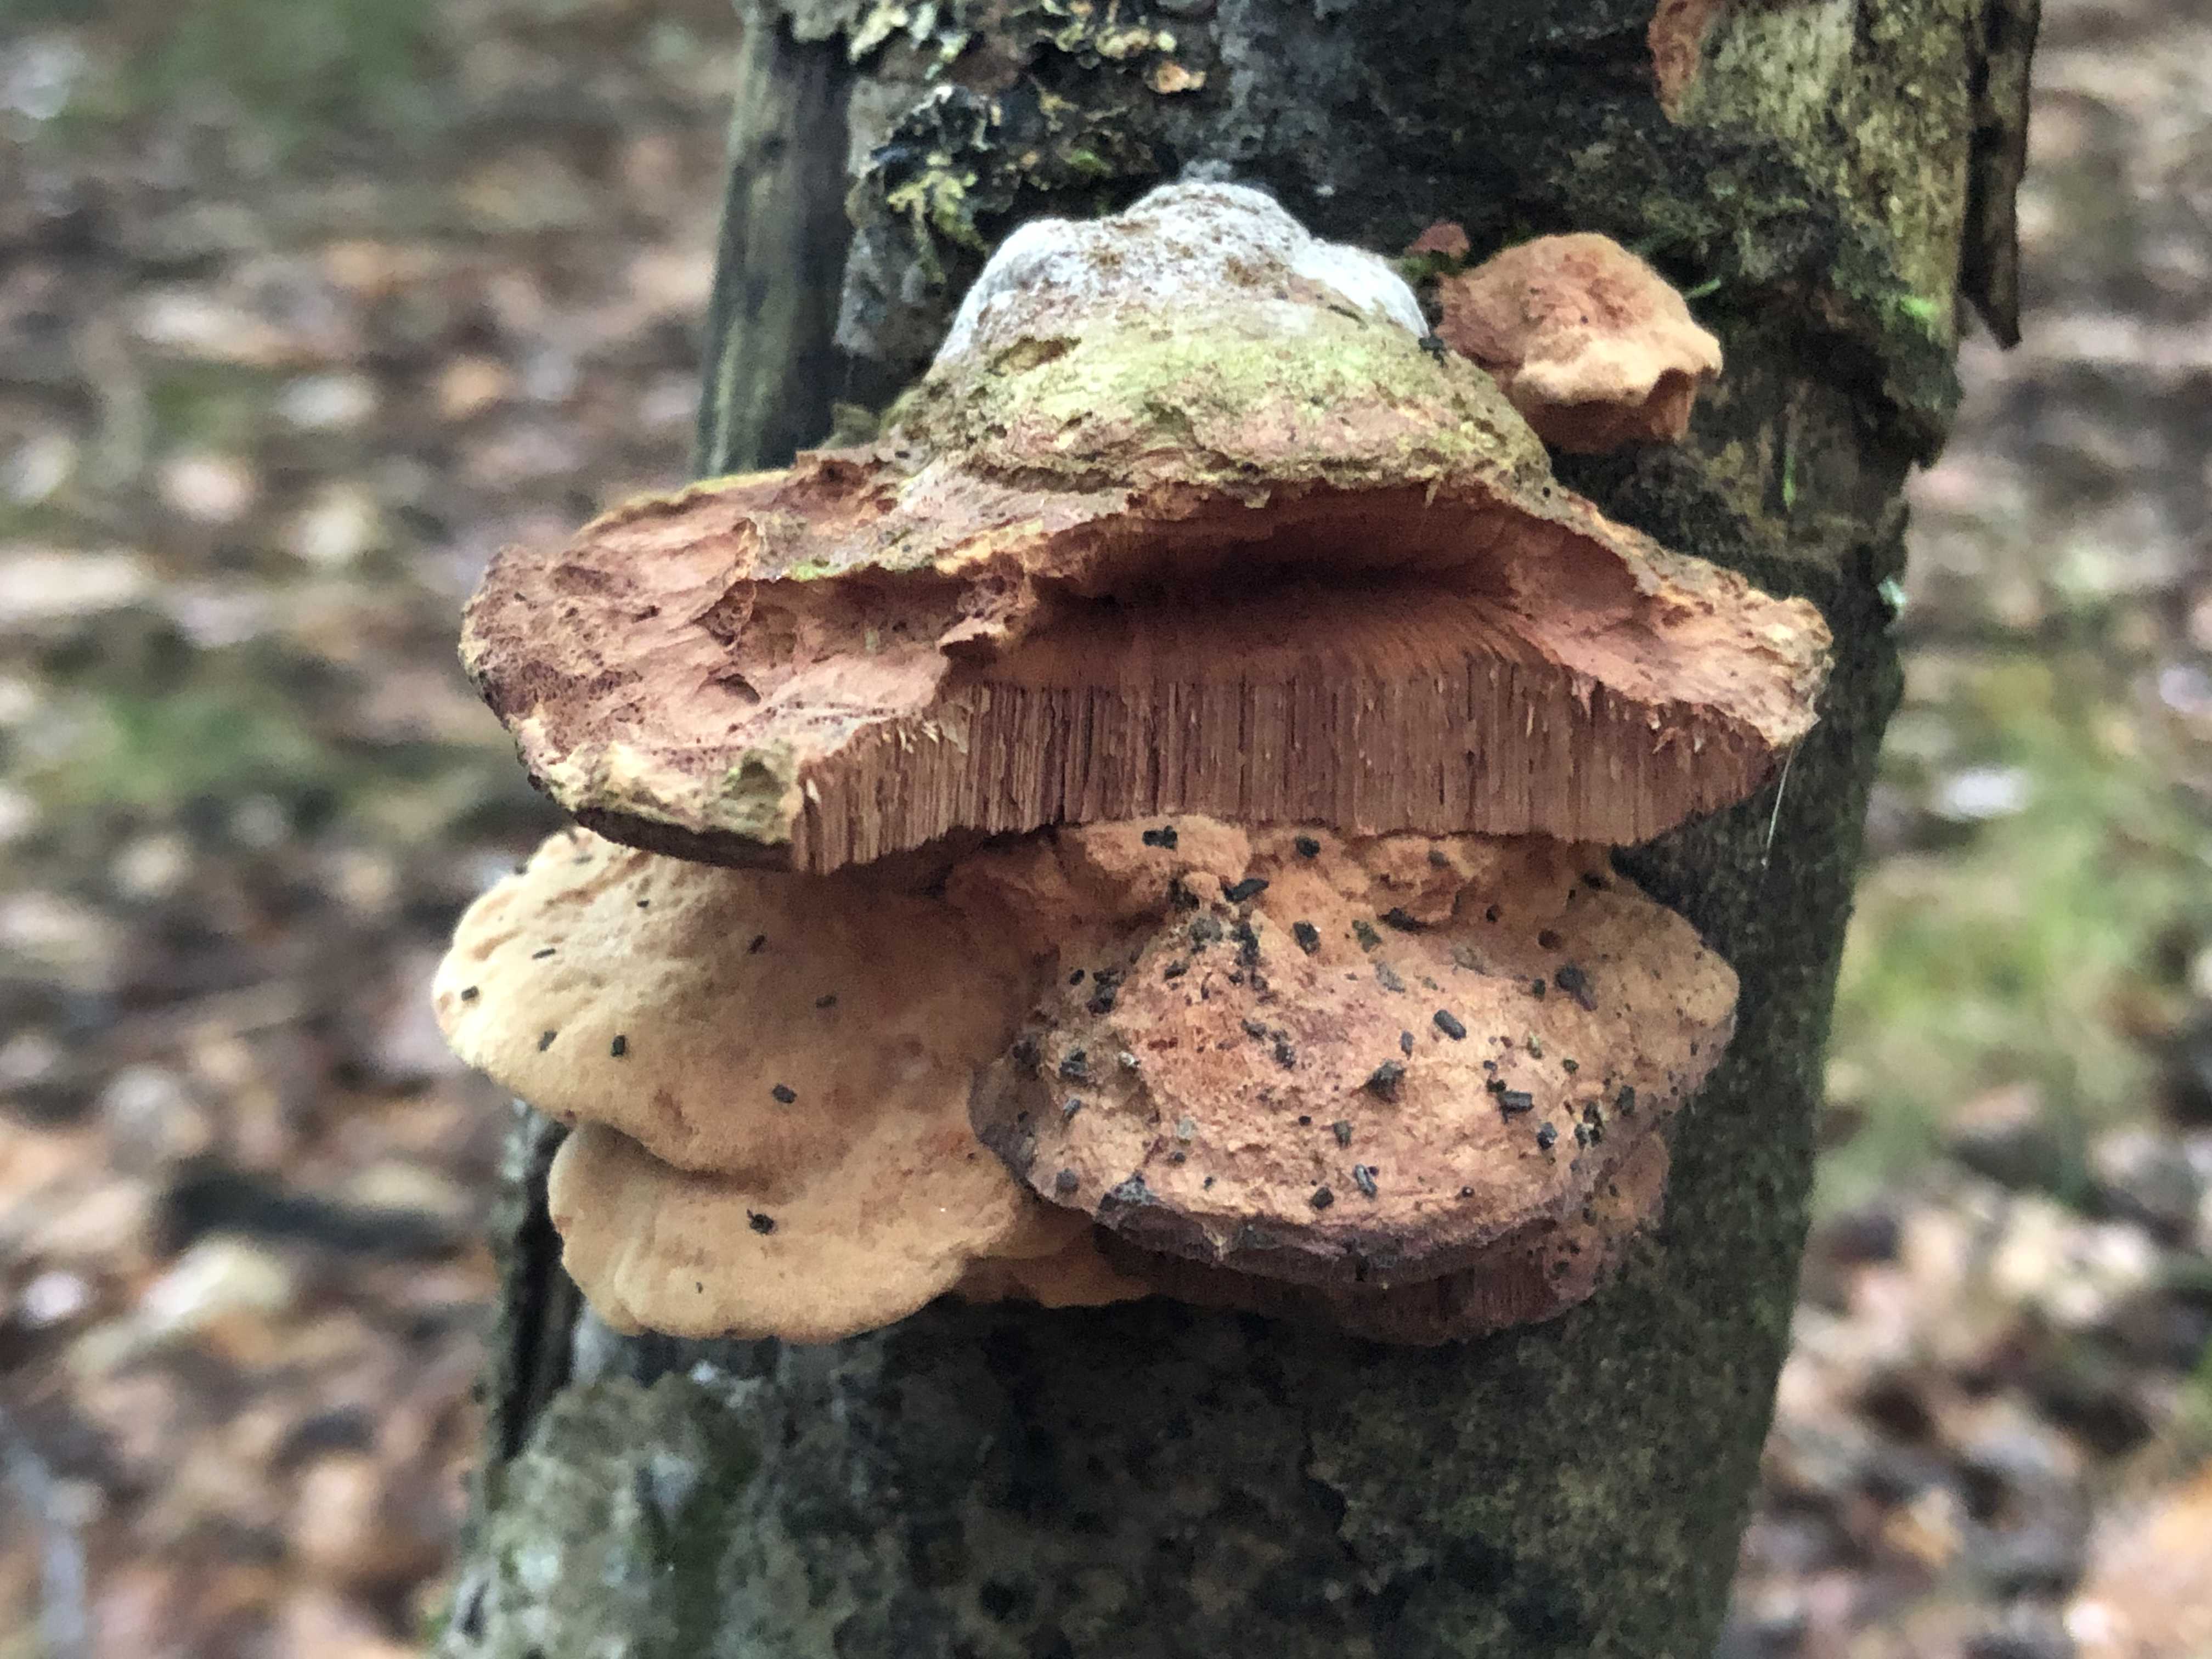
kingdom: Fungi
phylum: Basidiomycota
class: Agaricomycetes
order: Polyporales
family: Phanerochaetaceae
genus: Hapalopilus
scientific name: Hapalopilus rutilans
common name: rødlig okkerporesvamp
